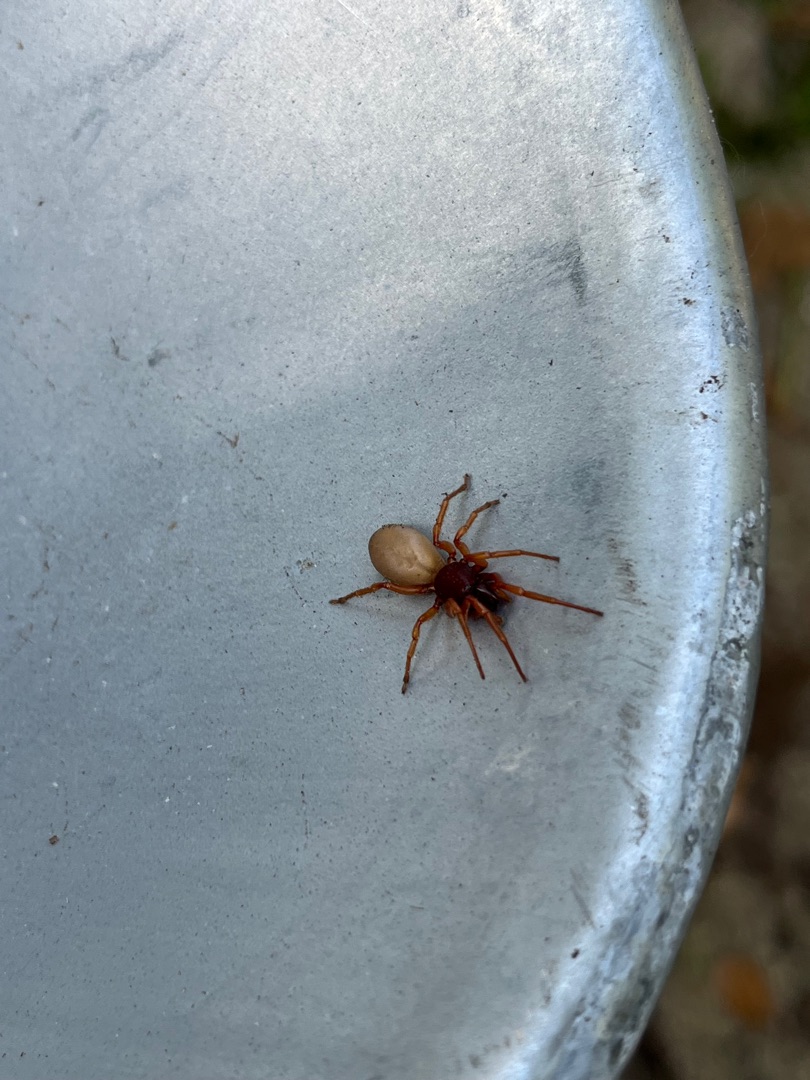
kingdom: Animalia
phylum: Arthropoda
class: Arachnida
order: Araneae
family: Dysderidae
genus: Dysdera
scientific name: Dysdera crocata
